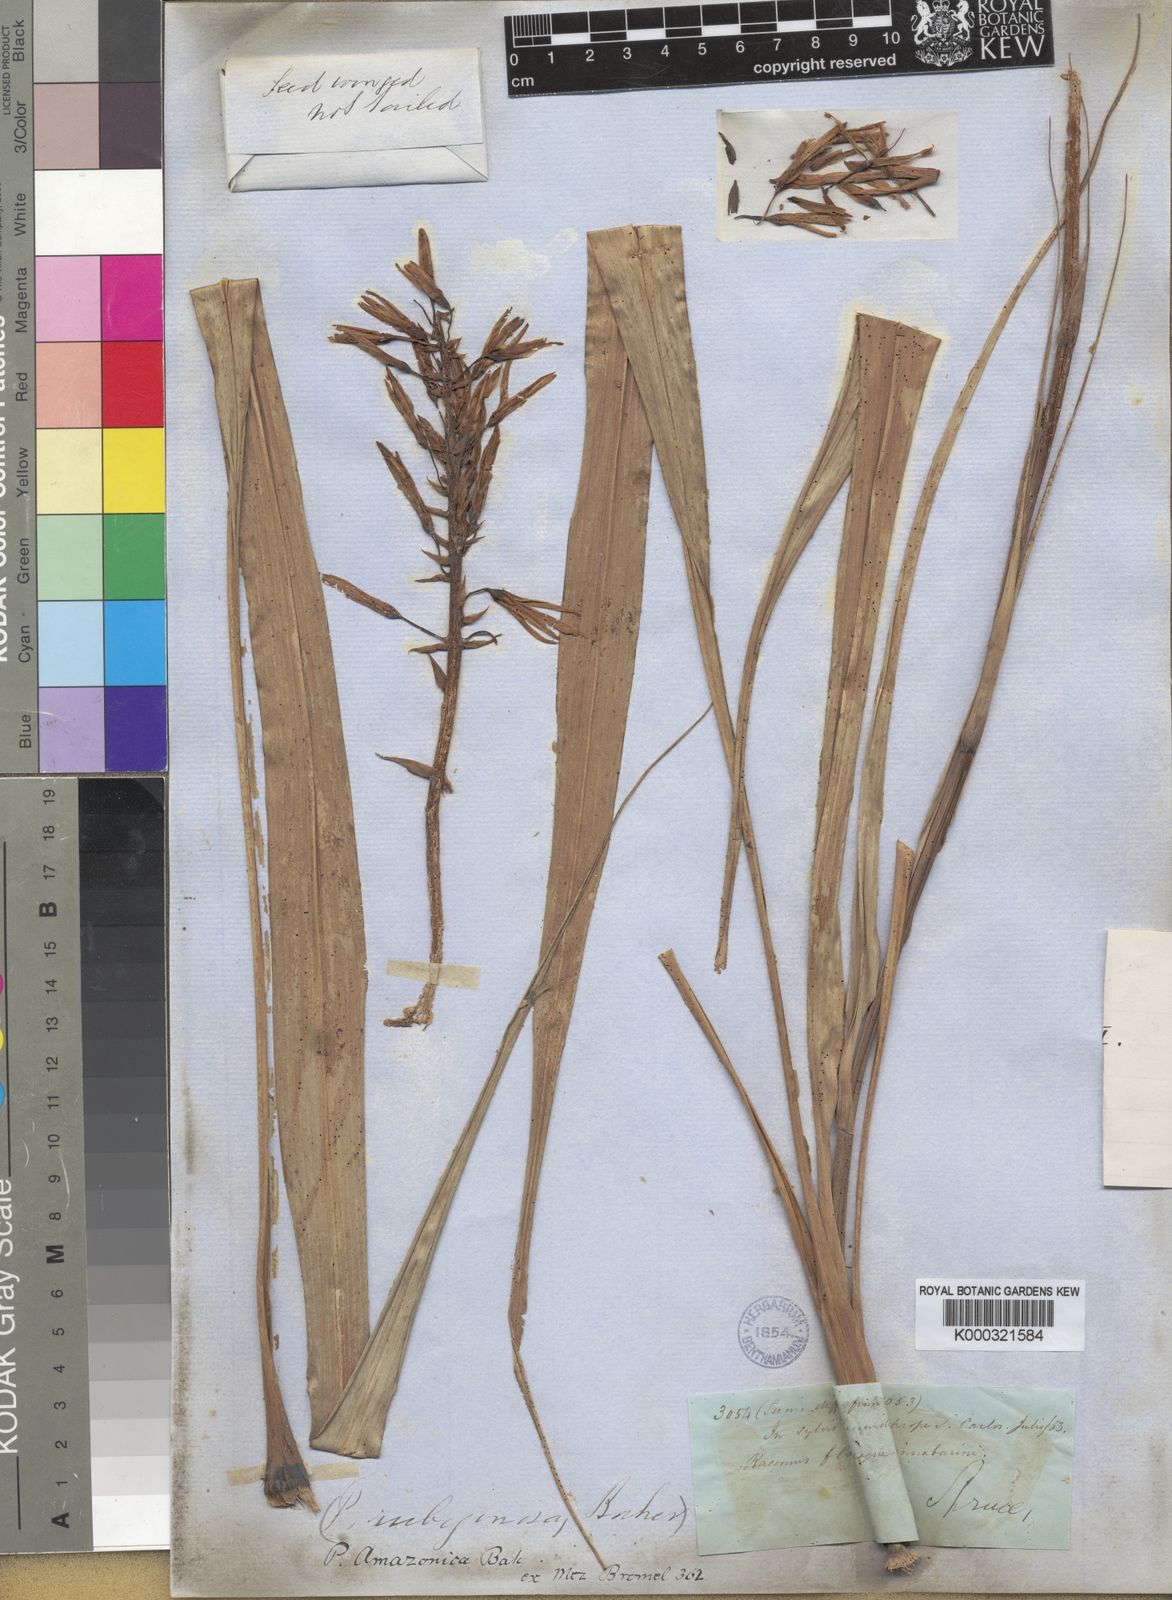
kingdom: Plantae
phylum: Tracheophyta
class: Liliopsida
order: Poales
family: Bromeliaceae
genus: Pitcairnia
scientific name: Pitcairnia rubiginosa
